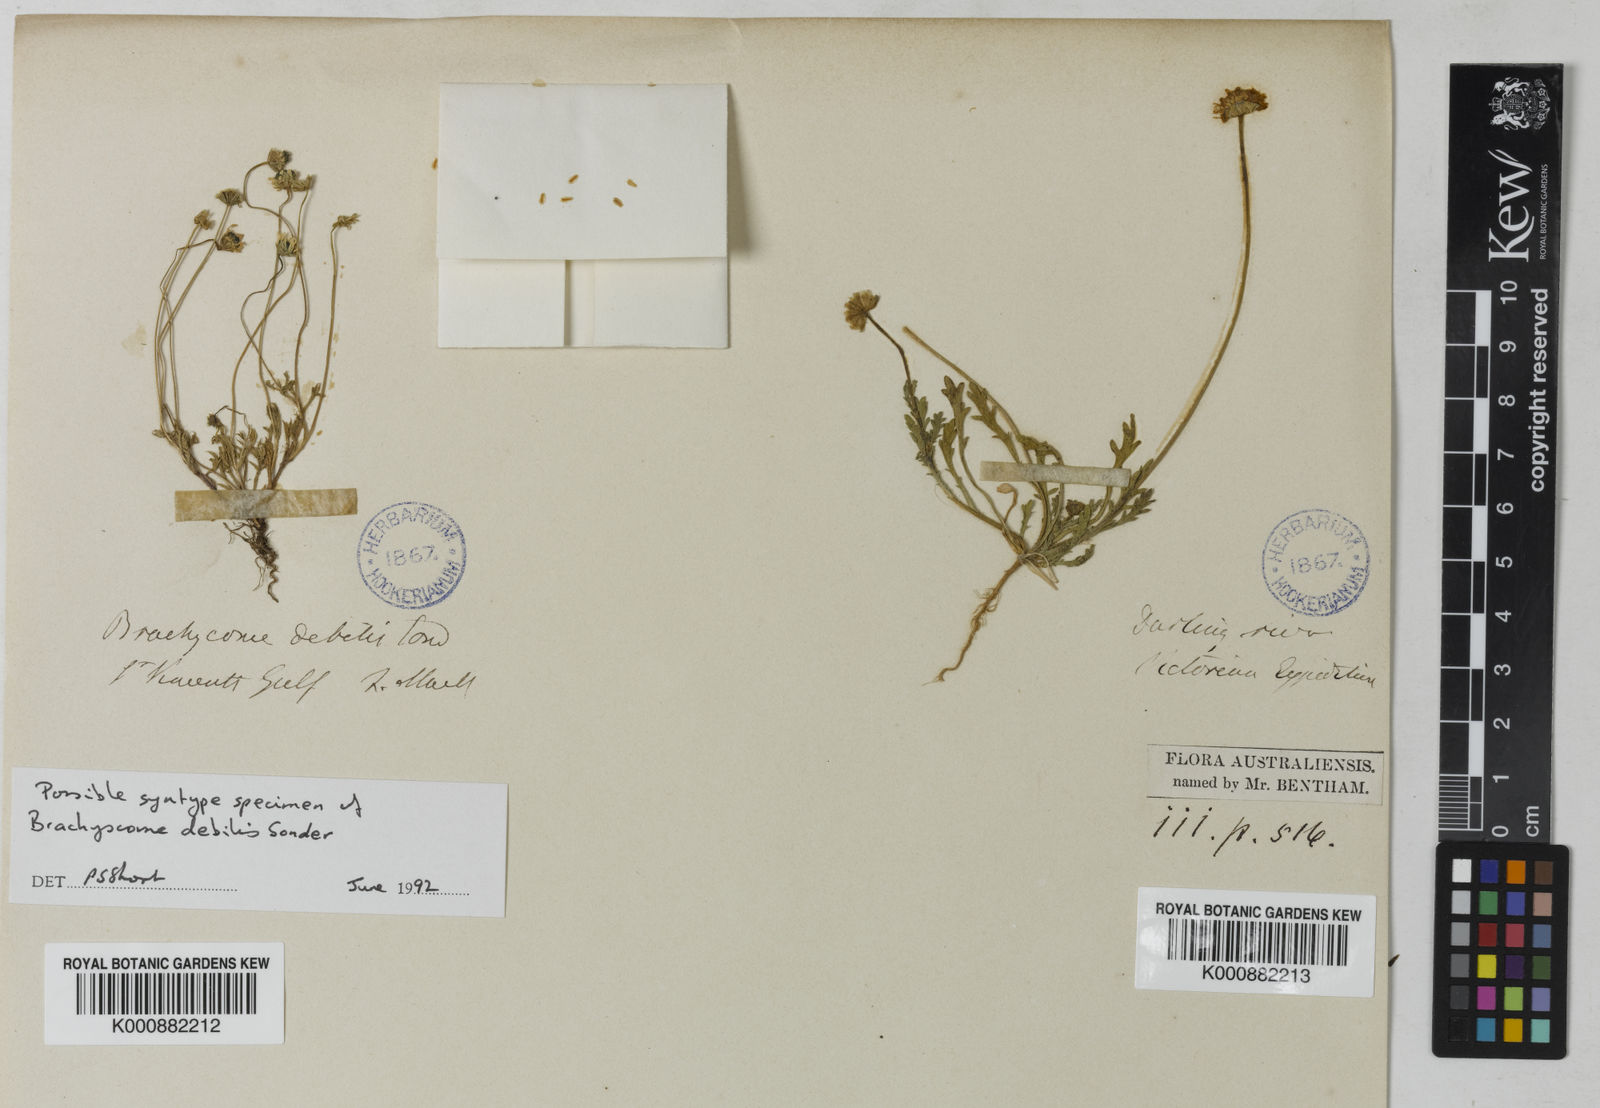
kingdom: Plantae
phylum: Tracheophyta
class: Magnoliopsida
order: Asterales
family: Asteraceae
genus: Brachyscome
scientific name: Brachyscome debilis
